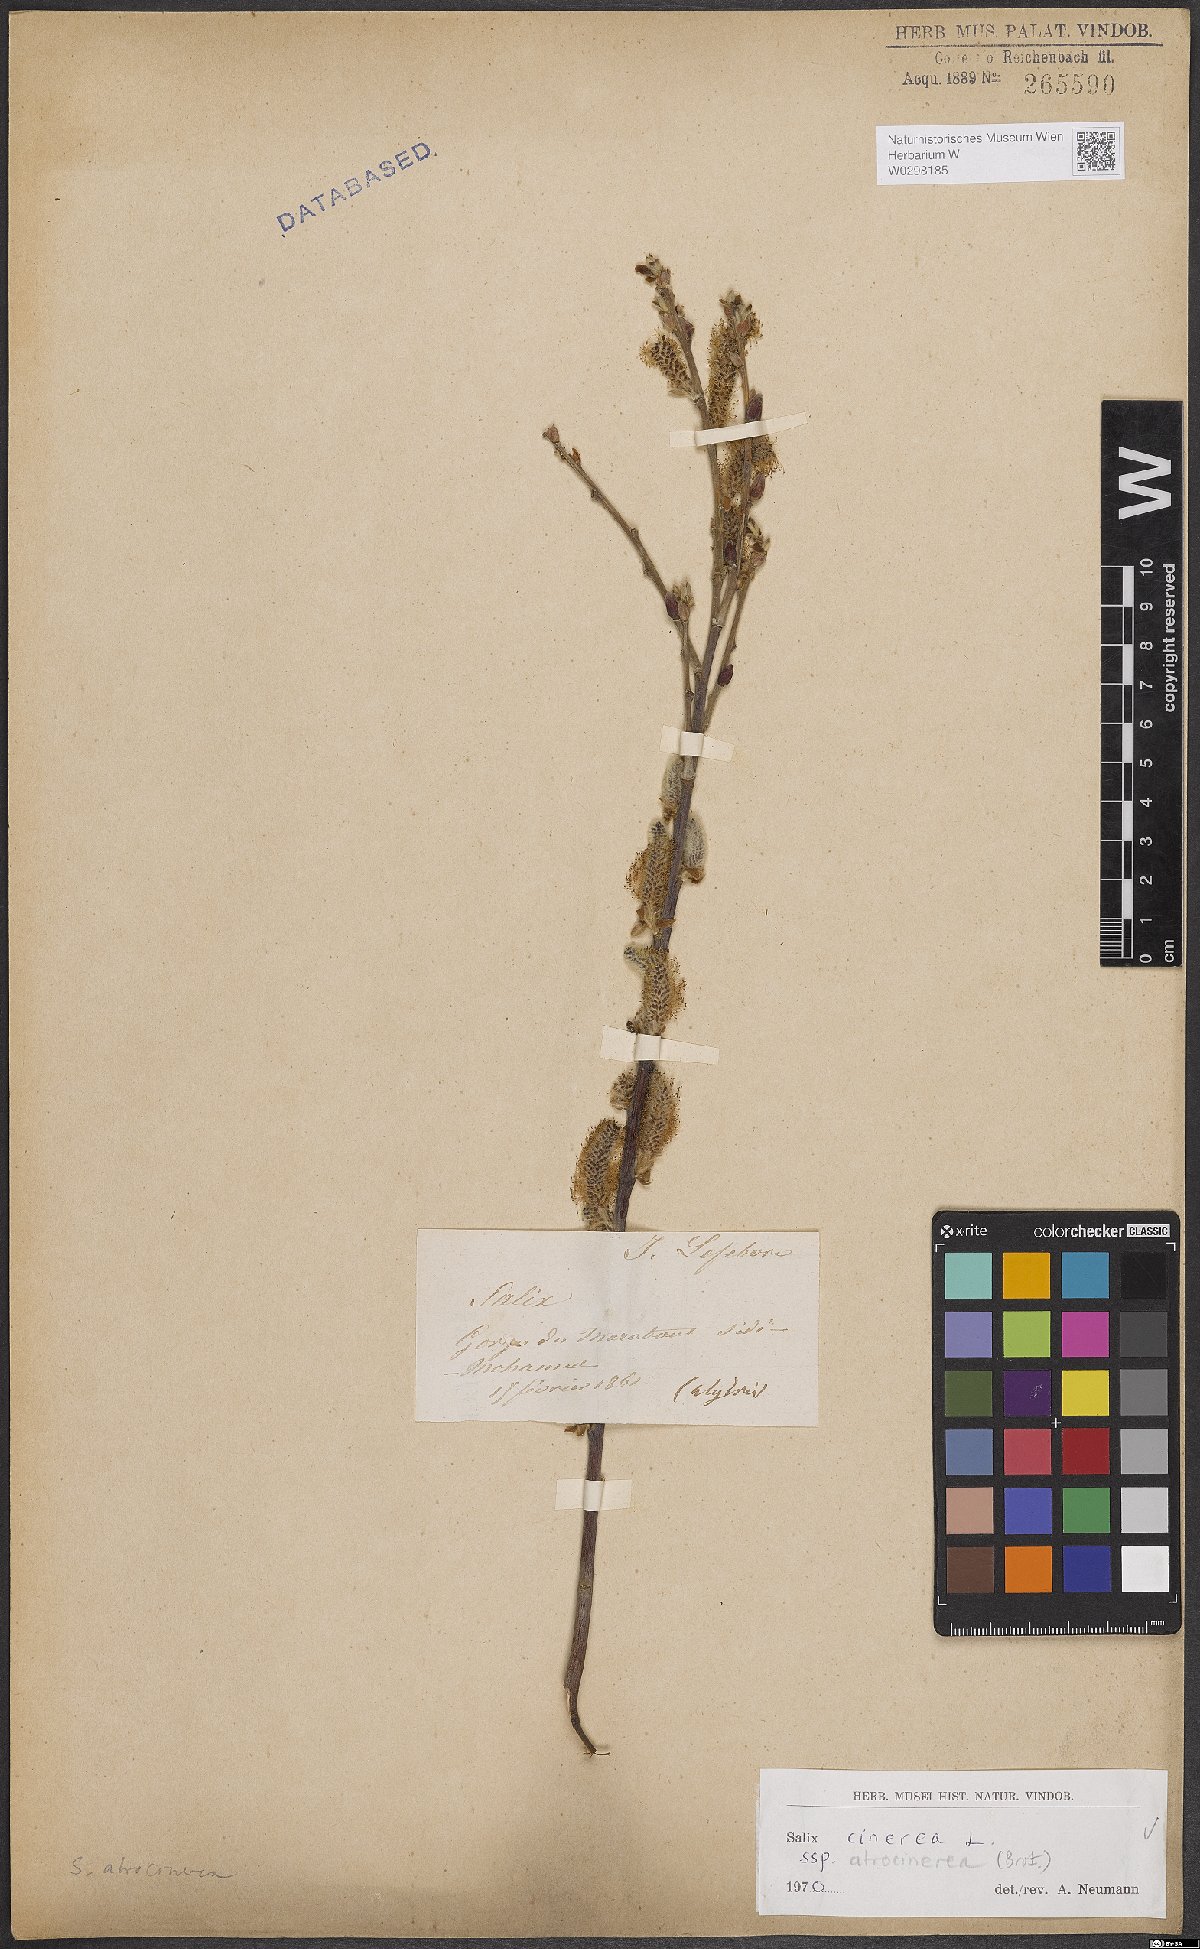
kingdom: Plantae
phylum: Tracheophyta
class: Magnoliopsida
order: Malpighiales
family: Salicaceae
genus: Salix
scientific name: Salix atrocinerea
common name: Rusty willow
